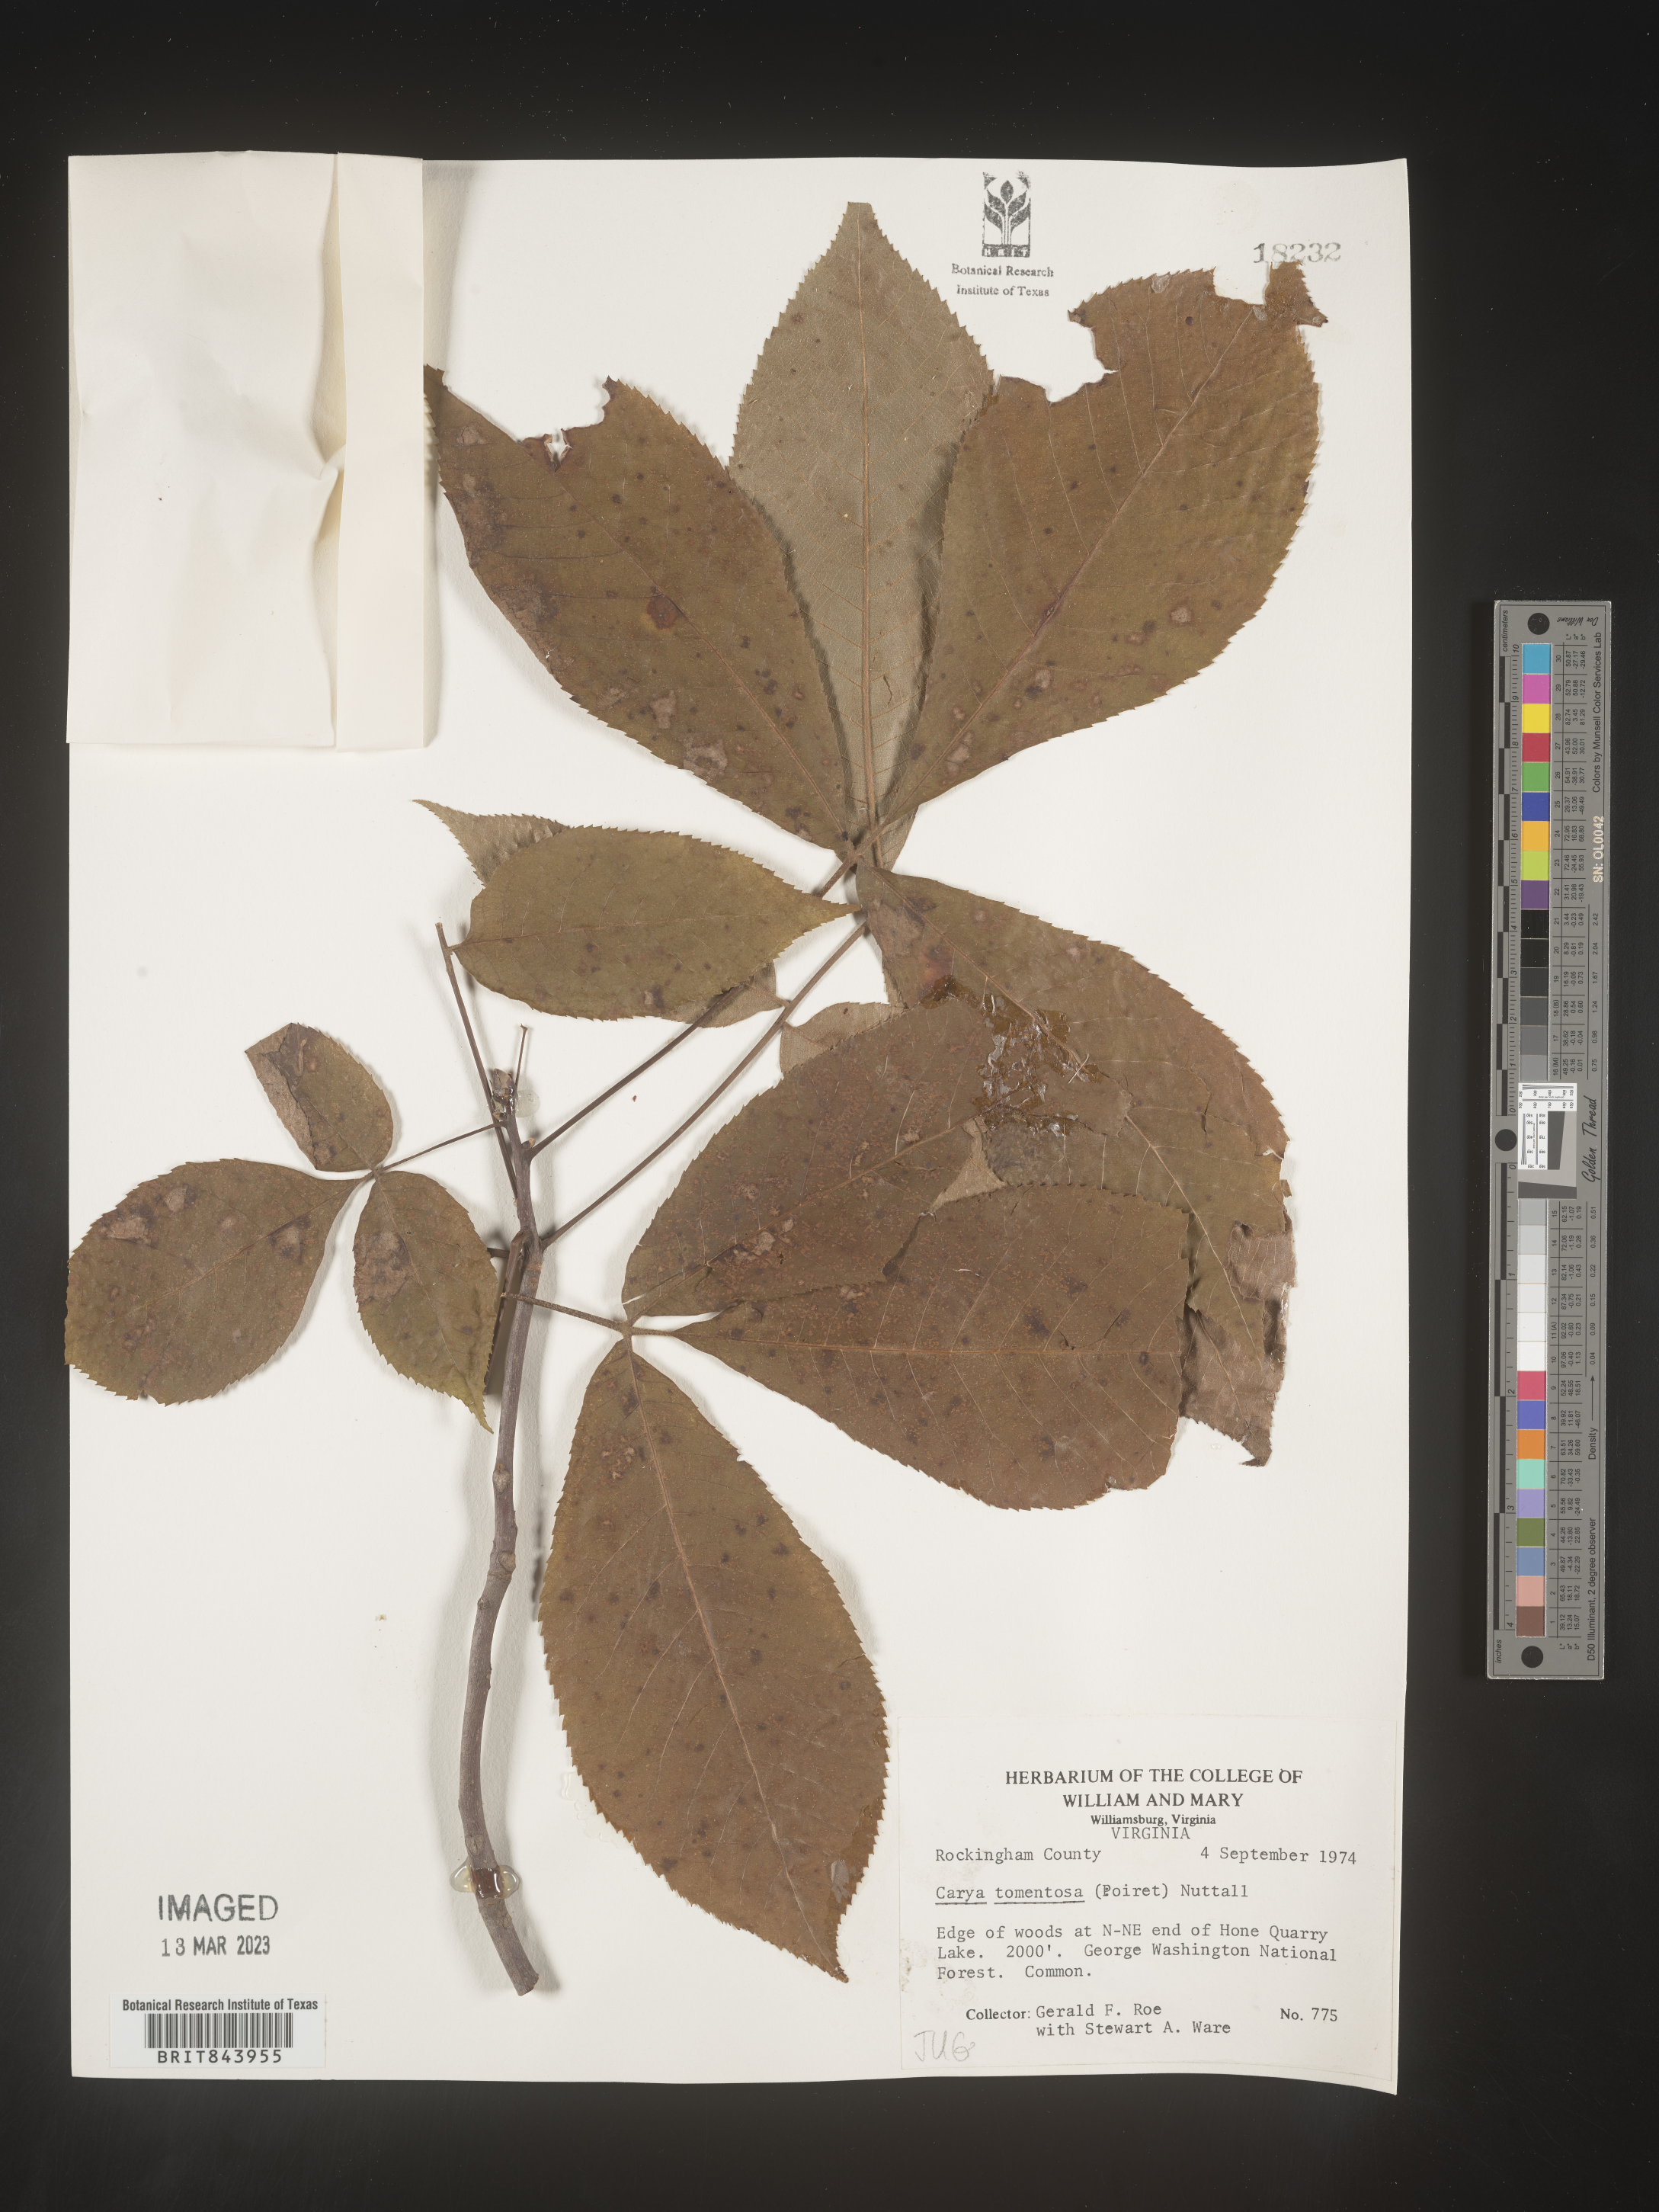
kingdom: Plantae
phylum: Tracheophyta
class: Magnoliopsida
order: Fagales
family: Juglandaceae
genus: Carya
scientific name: Carya alba
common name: Mockernut hickory
